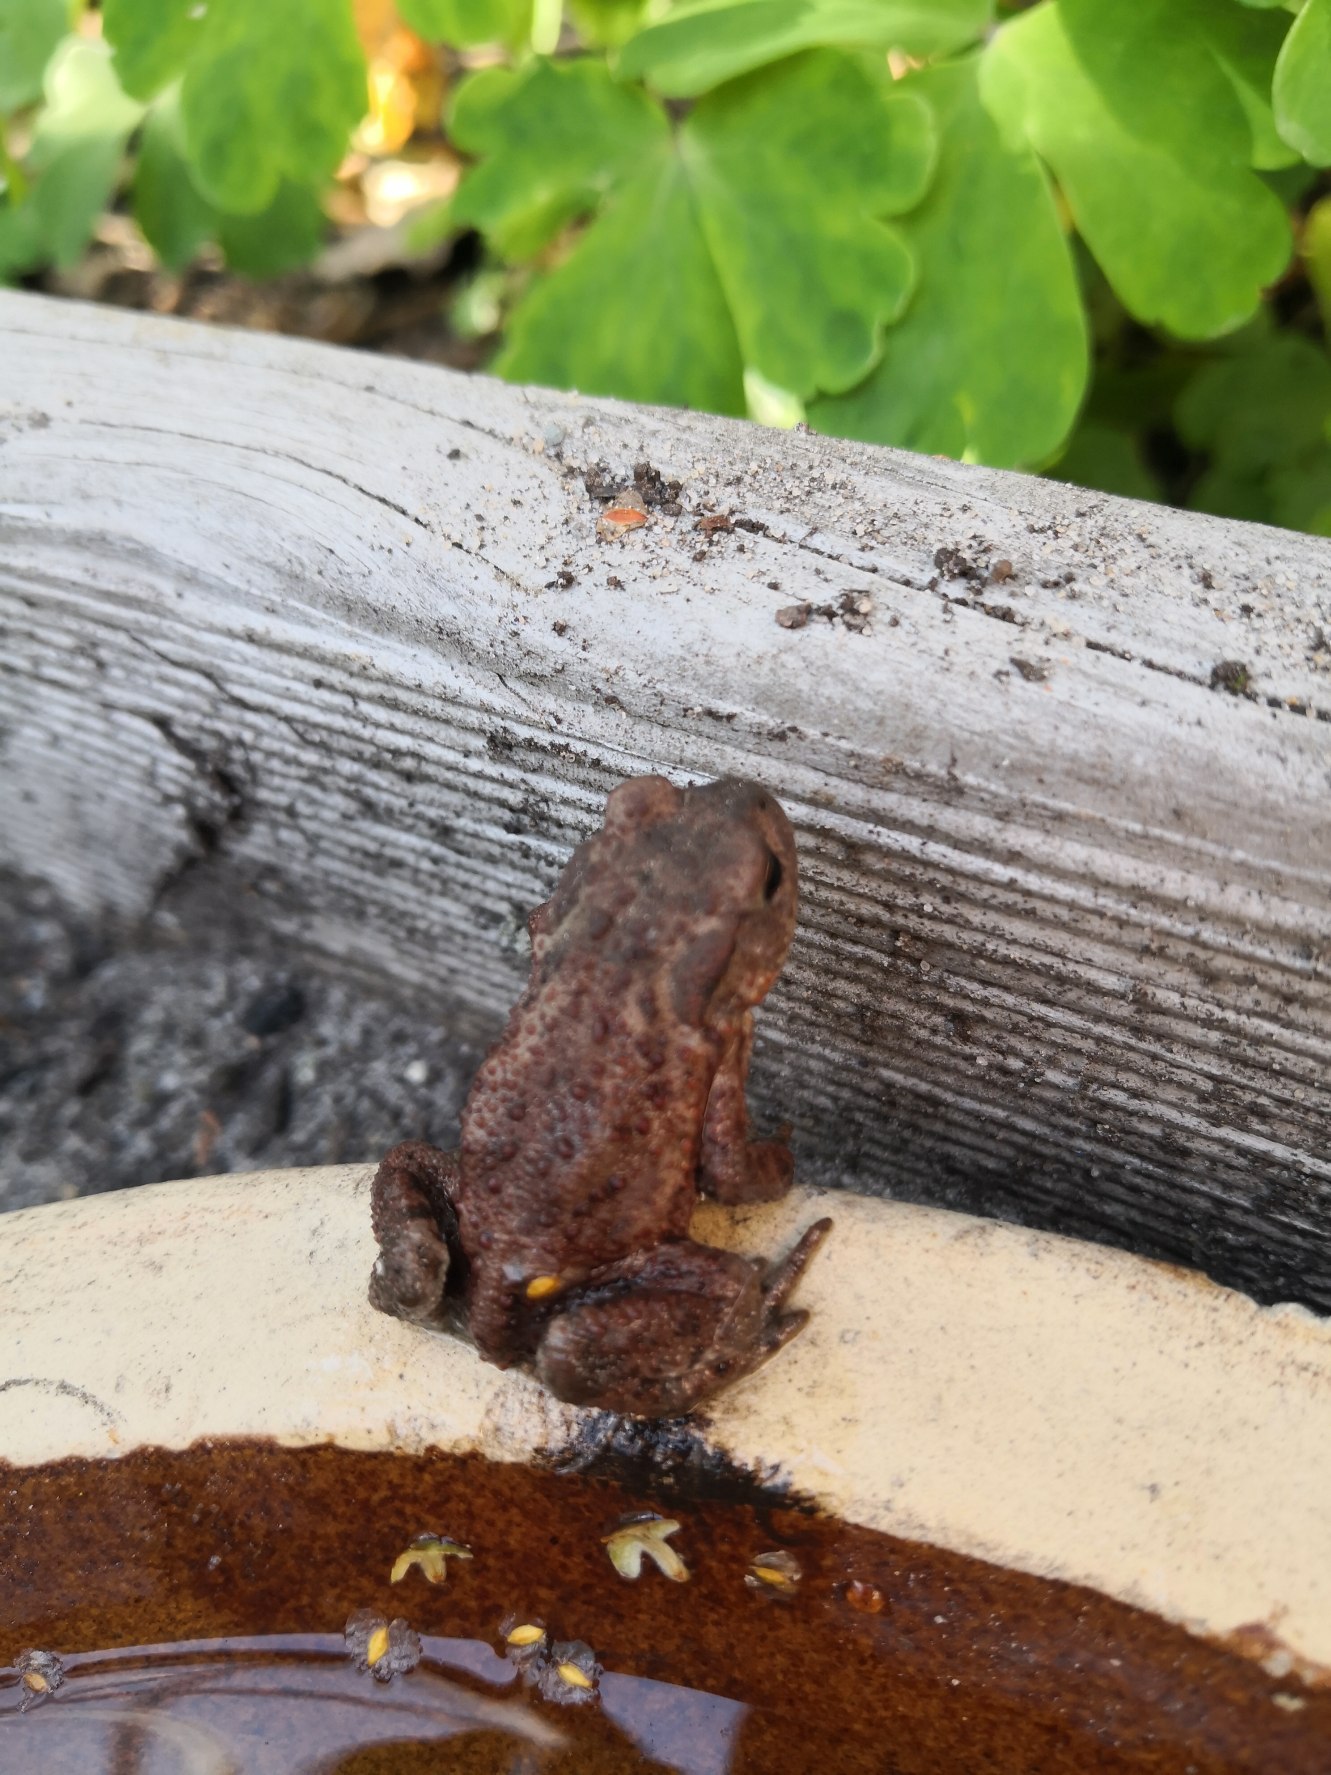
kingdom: Animalia
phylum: Chordata
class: Amphibia
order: Anura
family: Bufonidae
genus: Bufo
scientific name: Bufo bufo
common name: Skrubtudse
